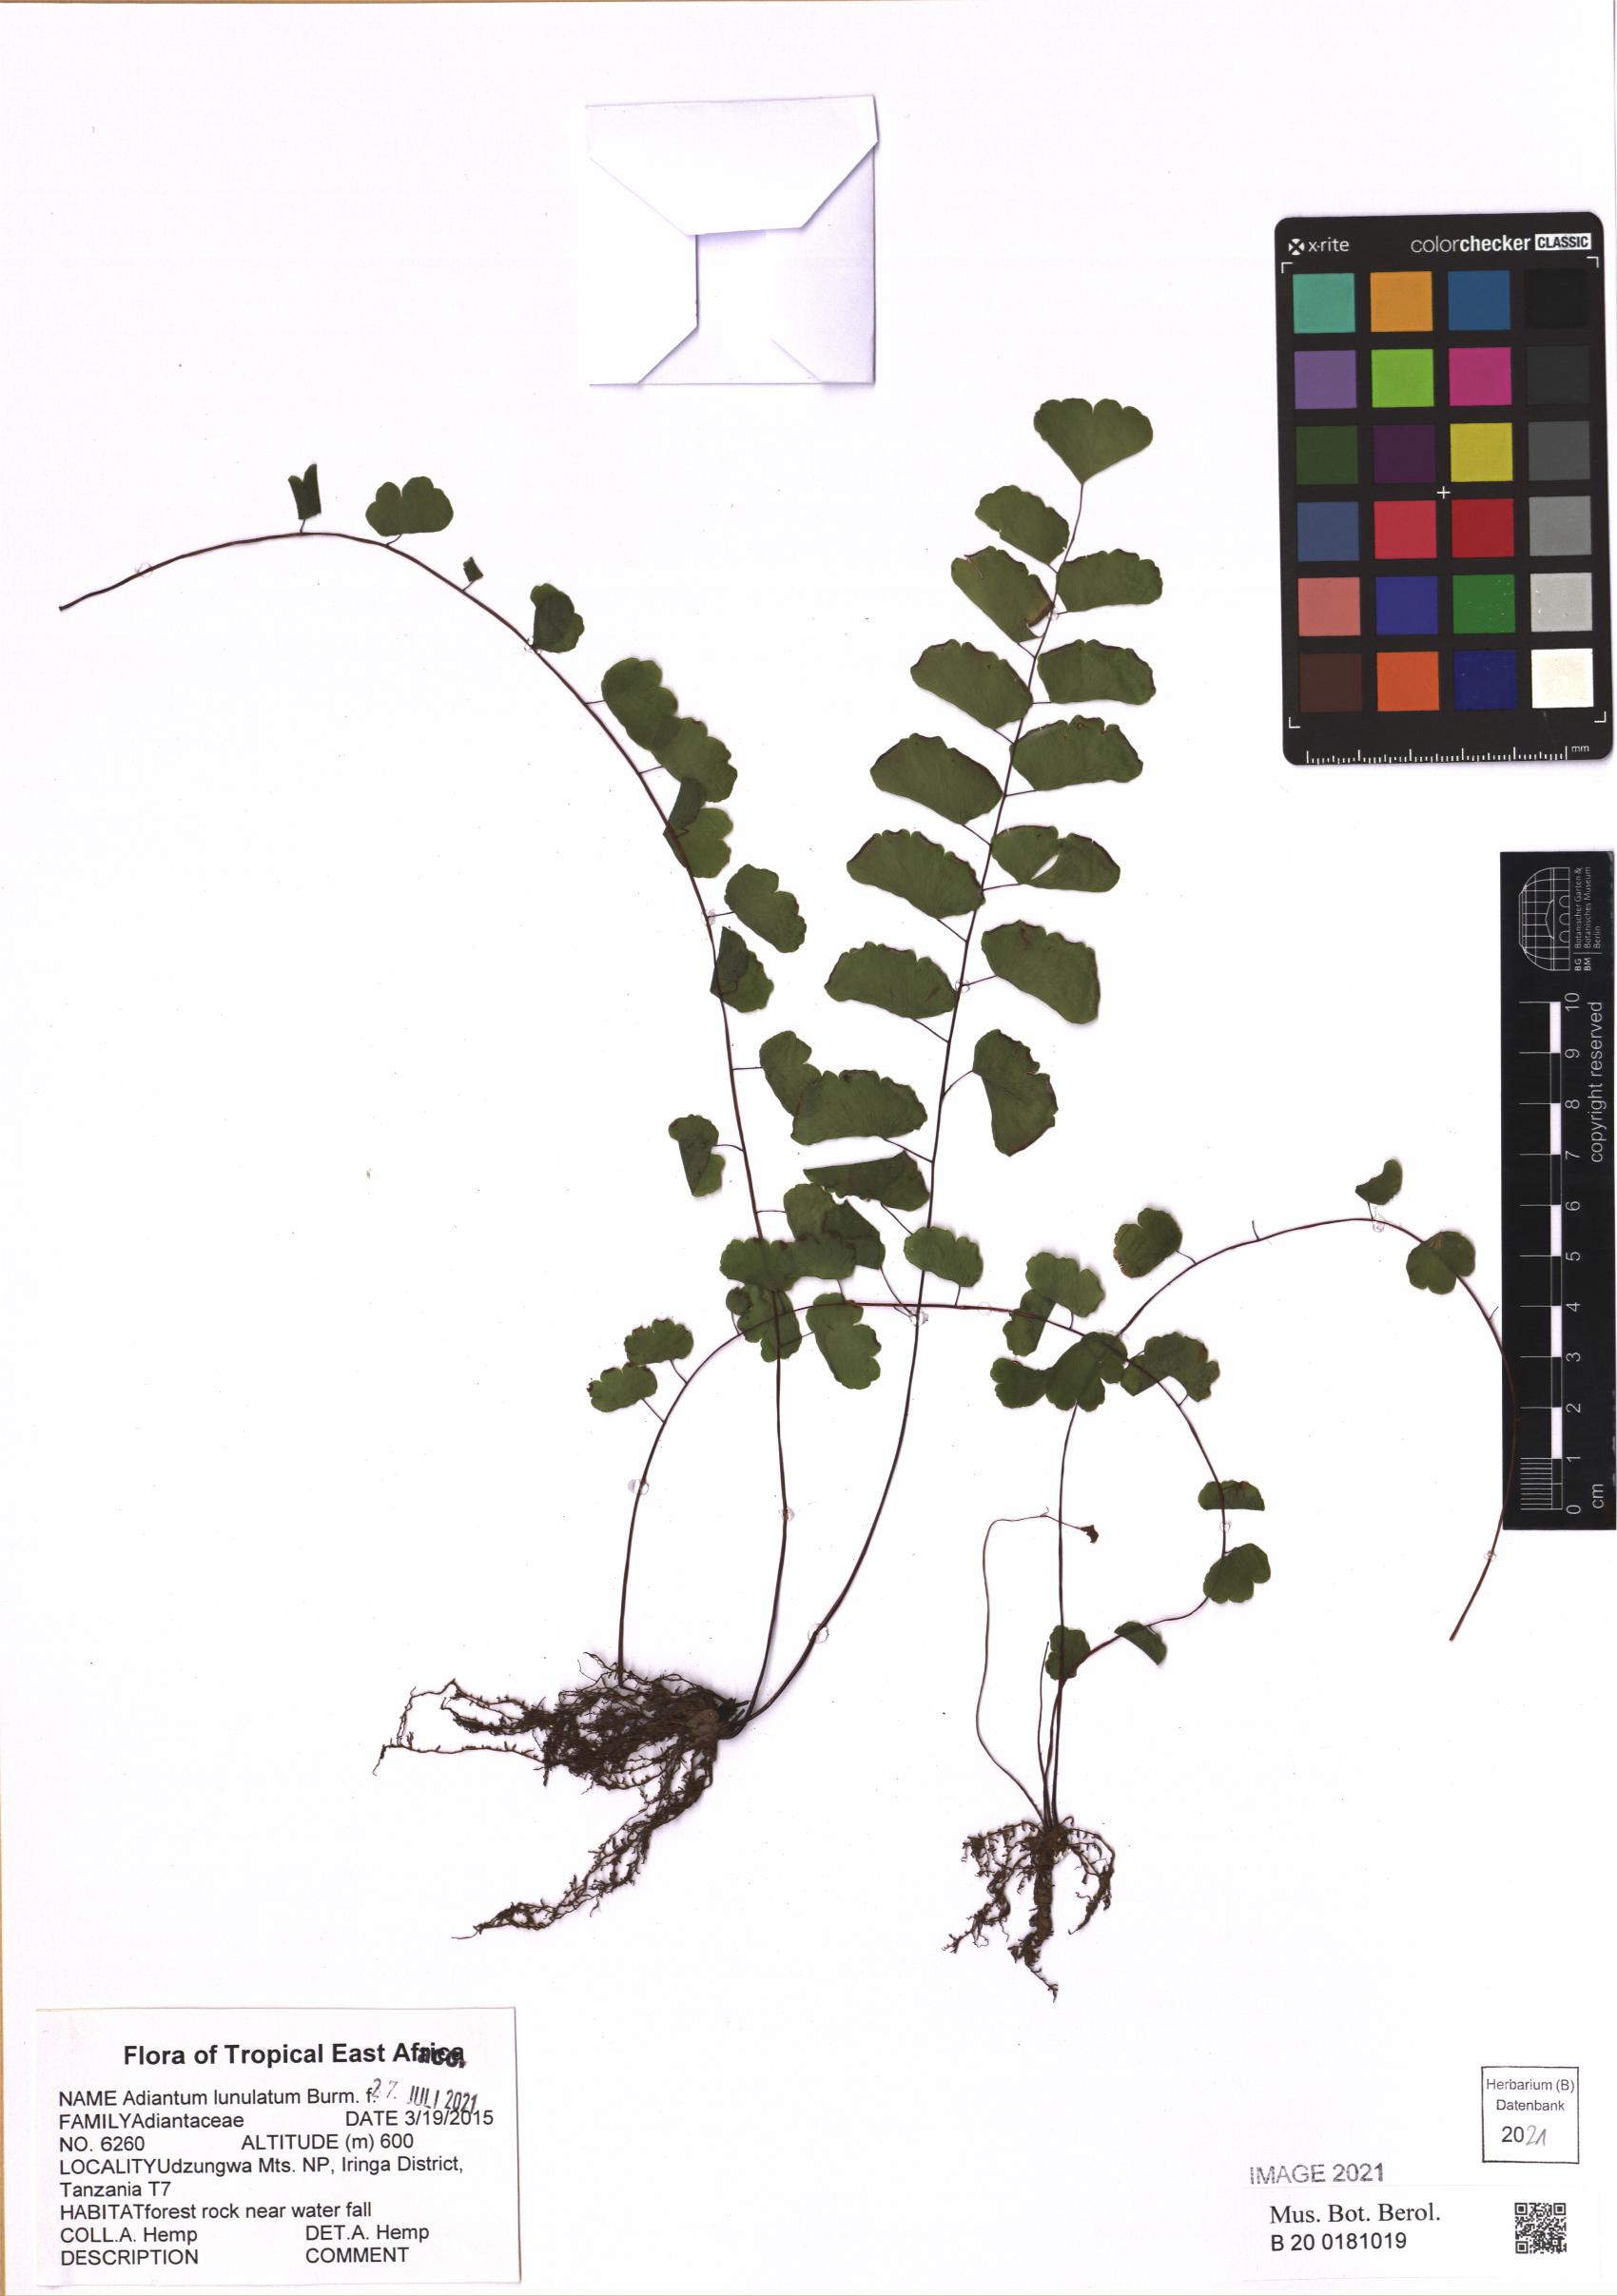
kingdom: Plantae
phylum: Tracheophyta
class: Polypodiopsida
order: Polypodiales
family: Pteridaceae
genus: Adiantum
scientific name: Adiantum philippense
